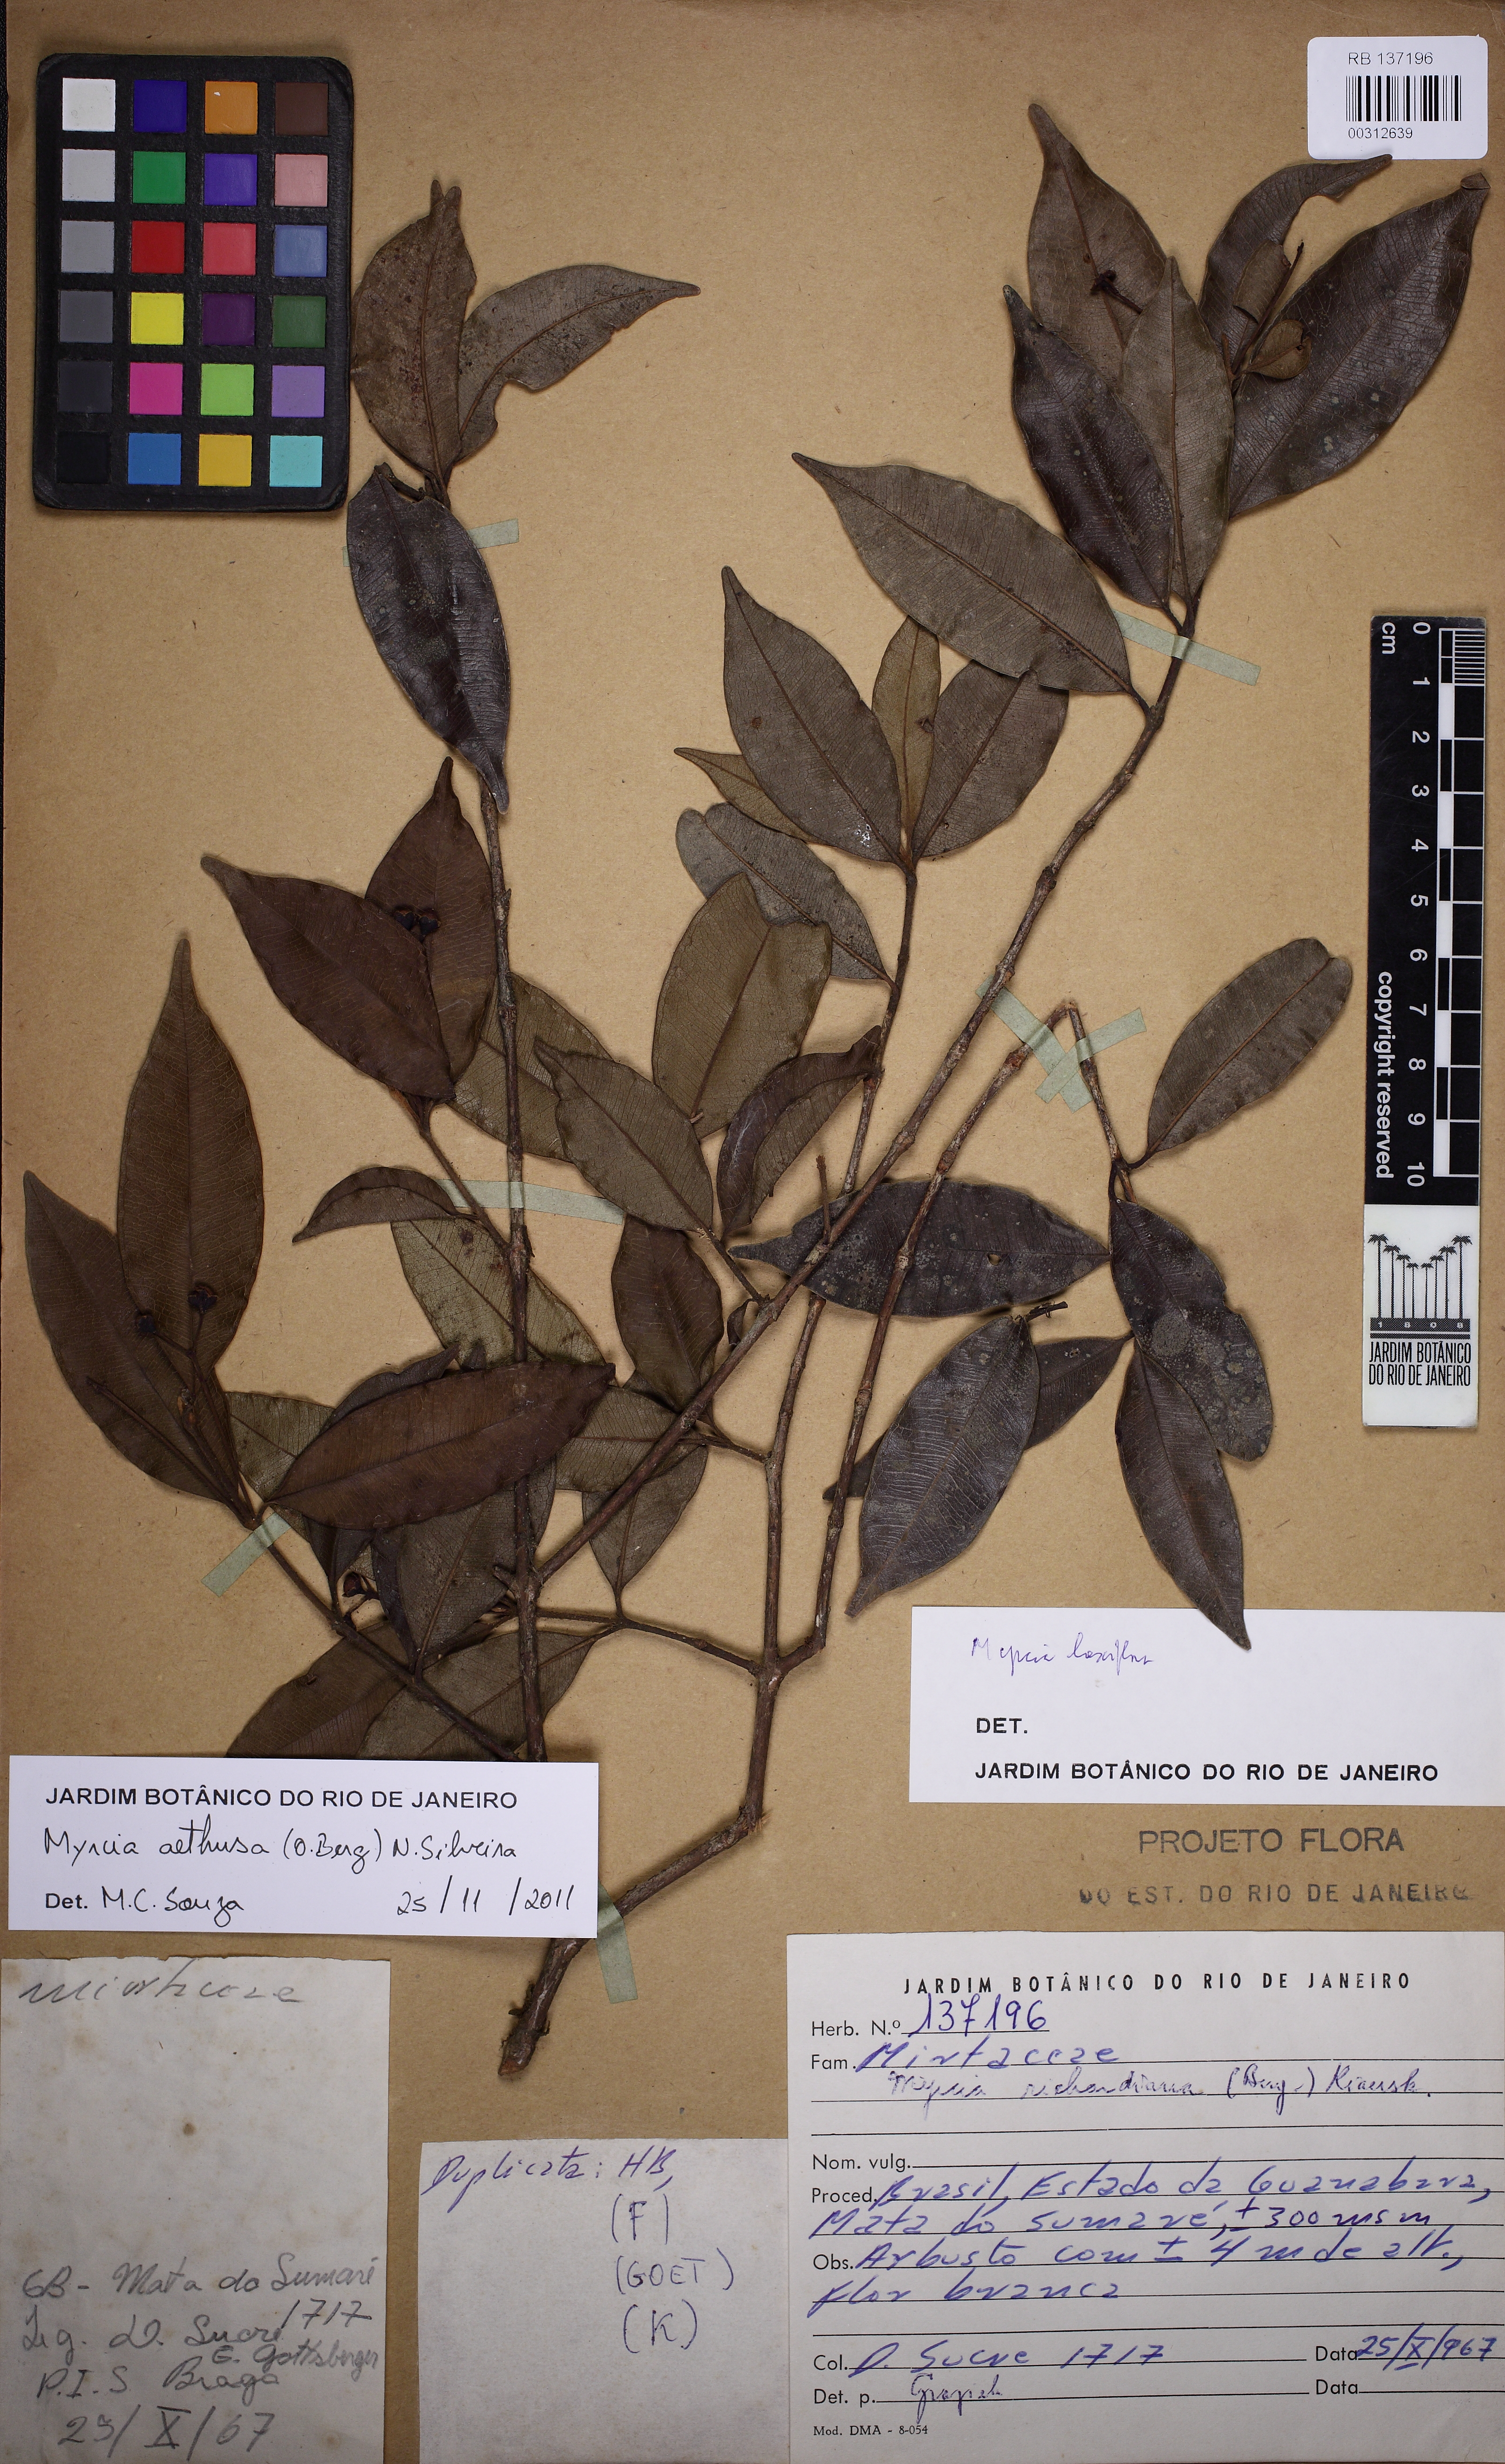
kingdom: Plantae
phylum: Tracheophyta
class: Magnoliopsida
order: Myrtales
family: Myrtaceae
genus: Myrcia
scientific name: Myrcia aethusa
